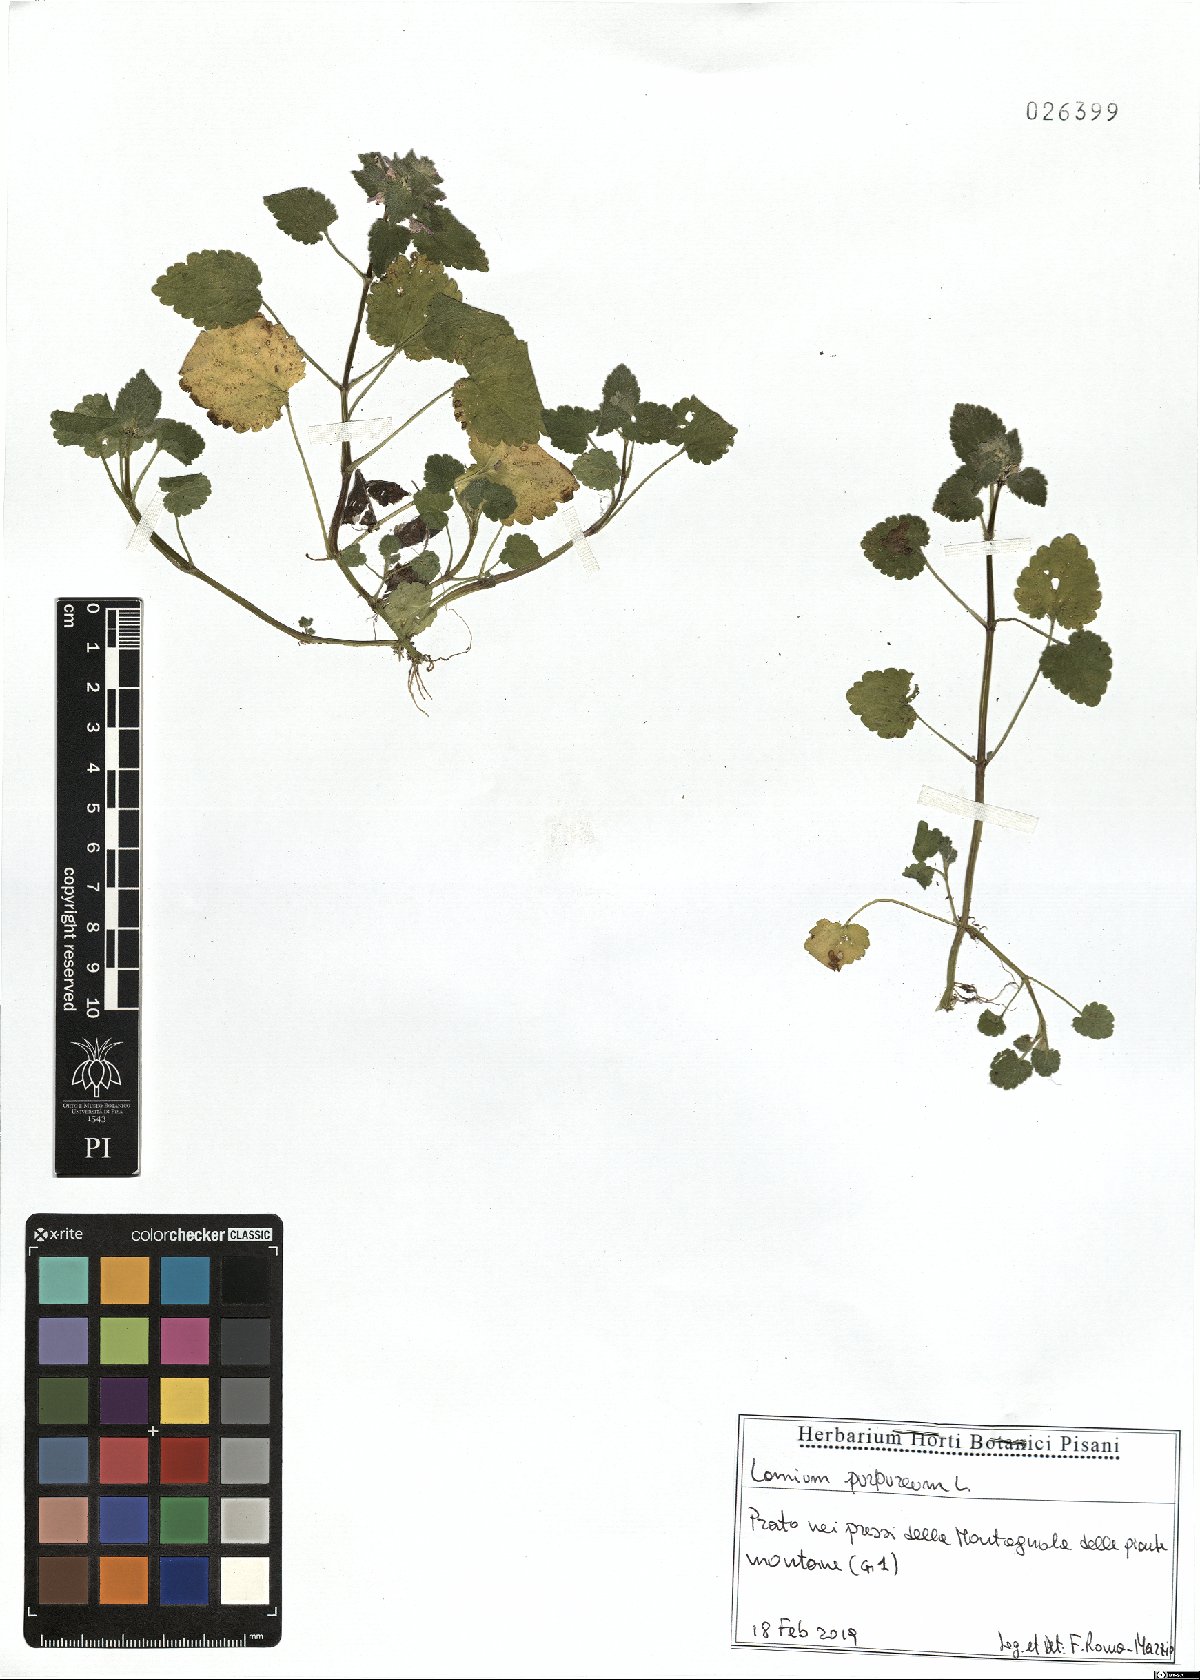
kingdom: Plantae
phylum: Tracheophyta
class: Magnoliopsida
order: Lamiales
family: Lamiaceae
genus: Lamium
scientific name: Lamium purpureum
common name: Red dead-nettle
